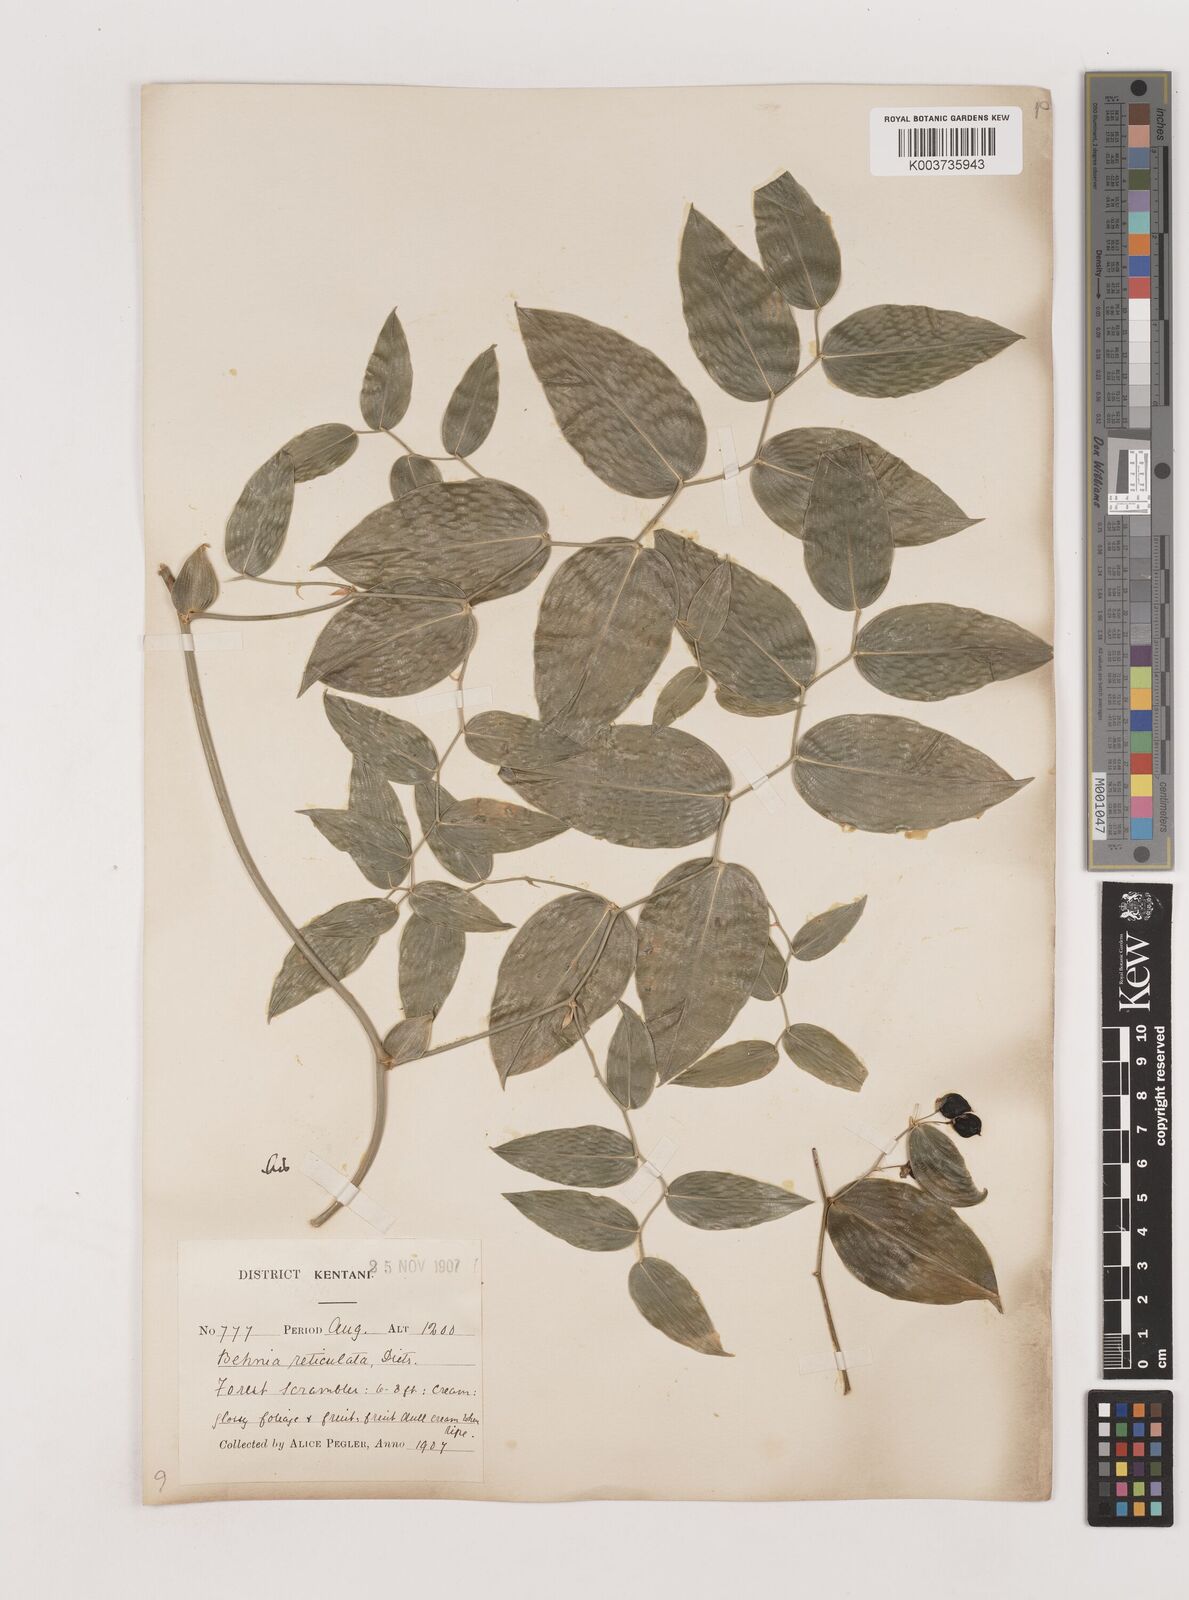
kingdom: Plantae
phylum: Tracheophyta
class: Liliopsida
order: Asparagales
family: Asparagaceae
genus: Behnia
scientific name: Behnia reticulata
